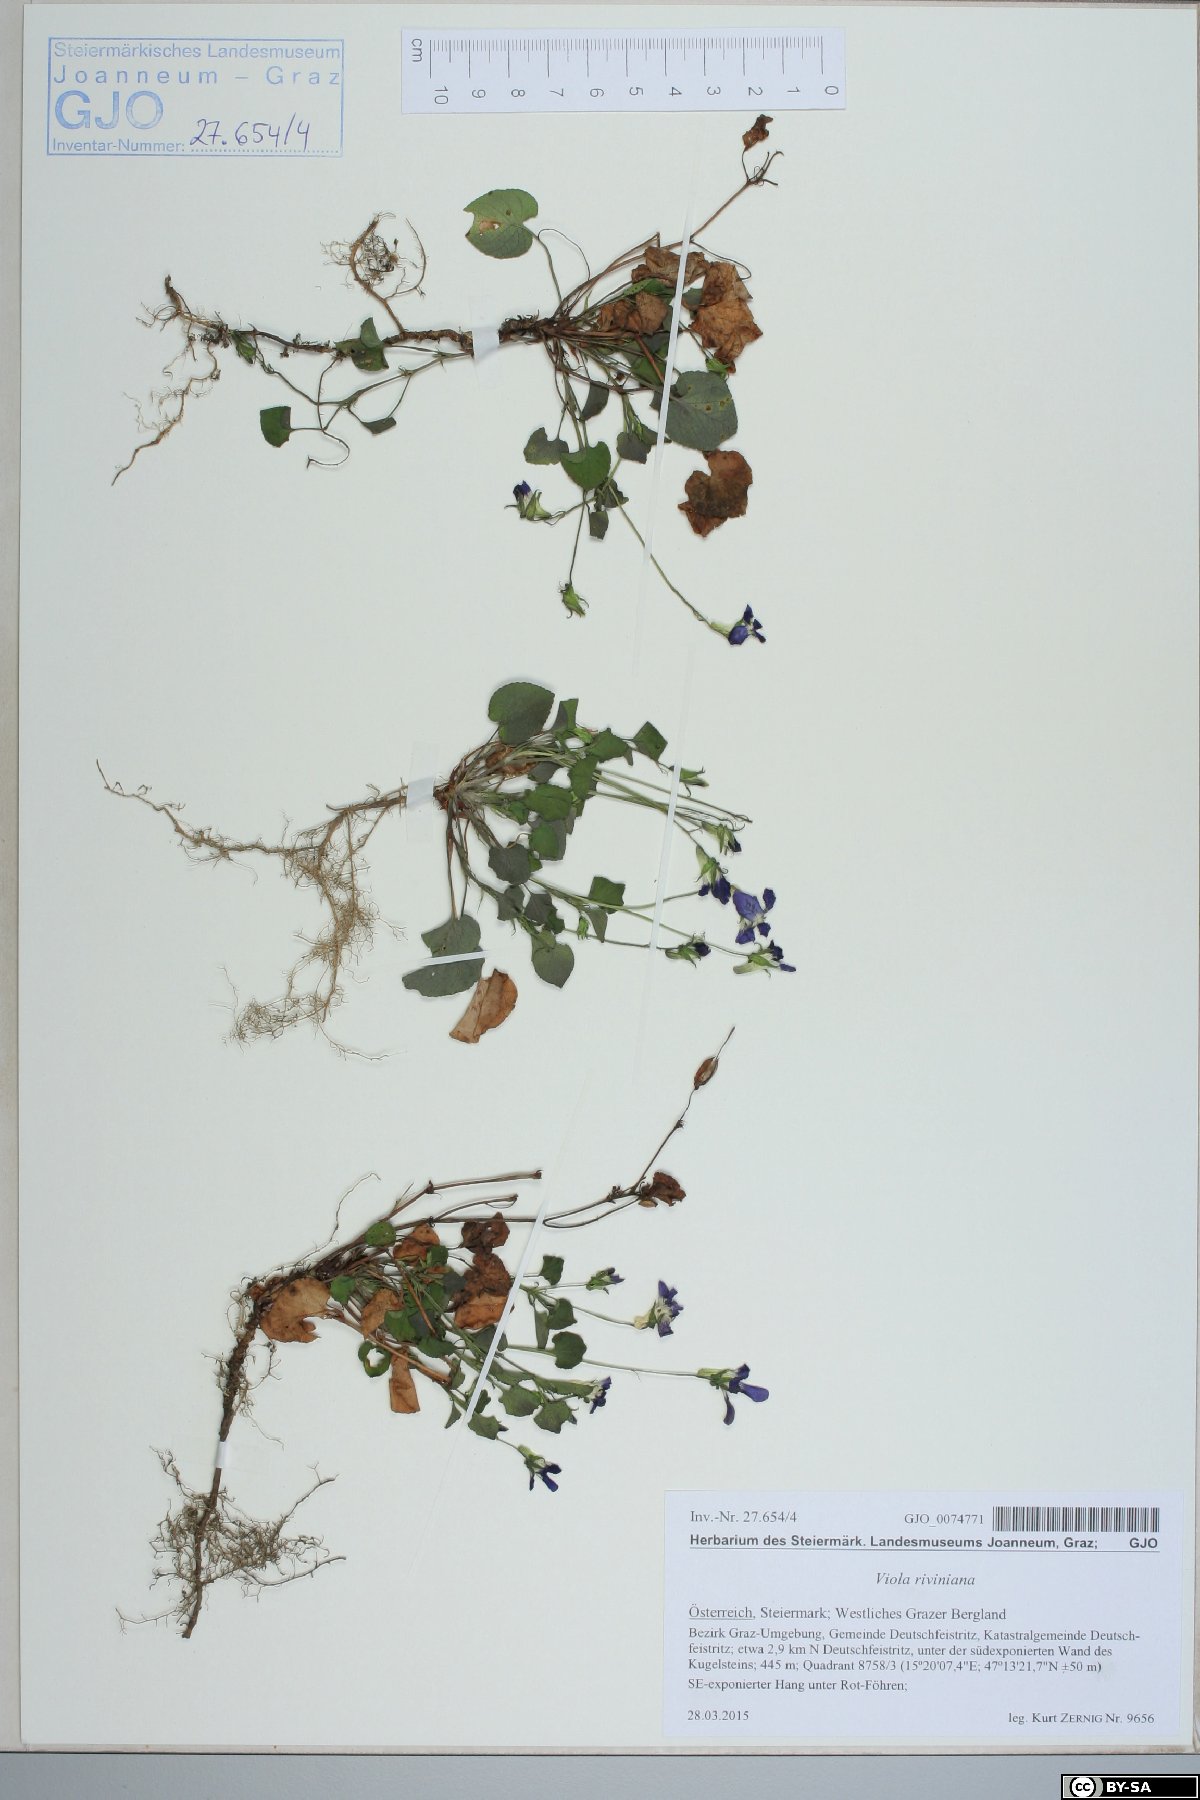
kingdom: Plantae
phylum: Tracheophyta
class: Magnoliopsida
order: Malpighiales
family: Violaceae
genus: Viola
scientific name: Viola riviniana
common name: Common dog-violet
